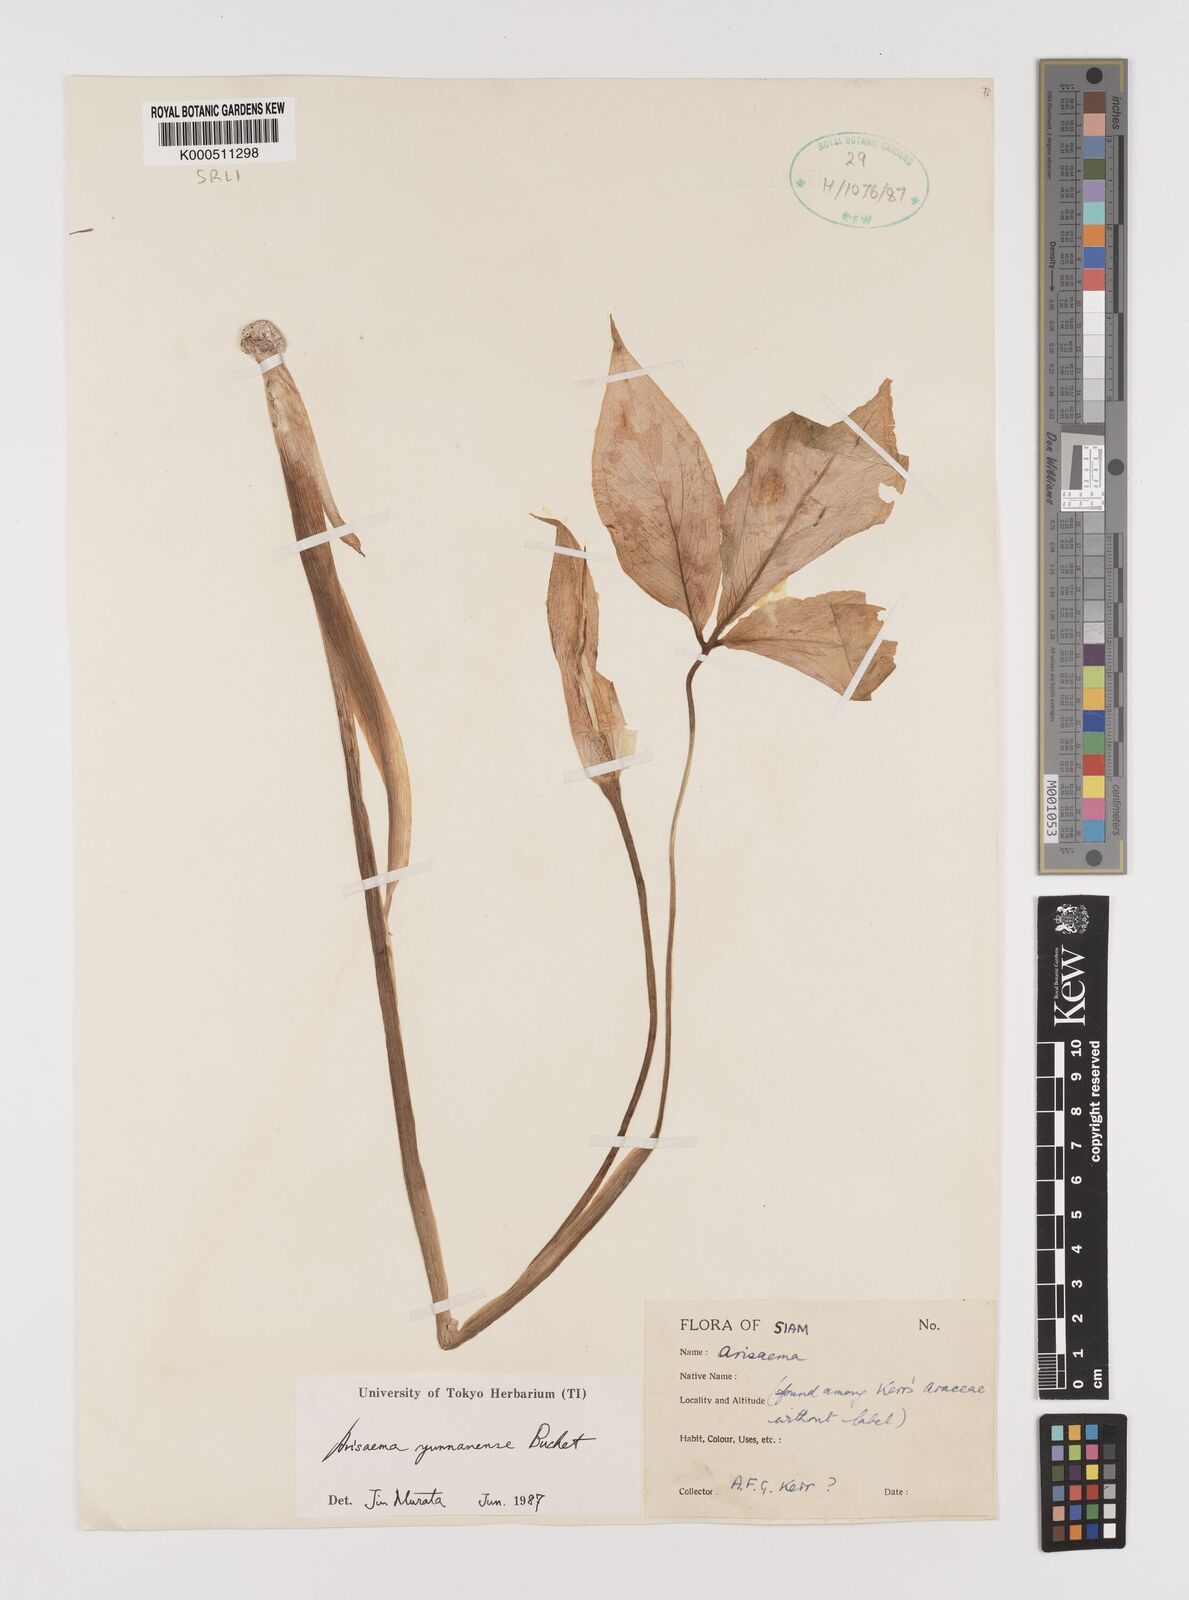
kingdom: Plantae
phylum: Tracheophyta
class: Liliopsida
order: Alismatales
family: Araceae
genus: Arisaema
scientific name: Arisaema yunnanense
